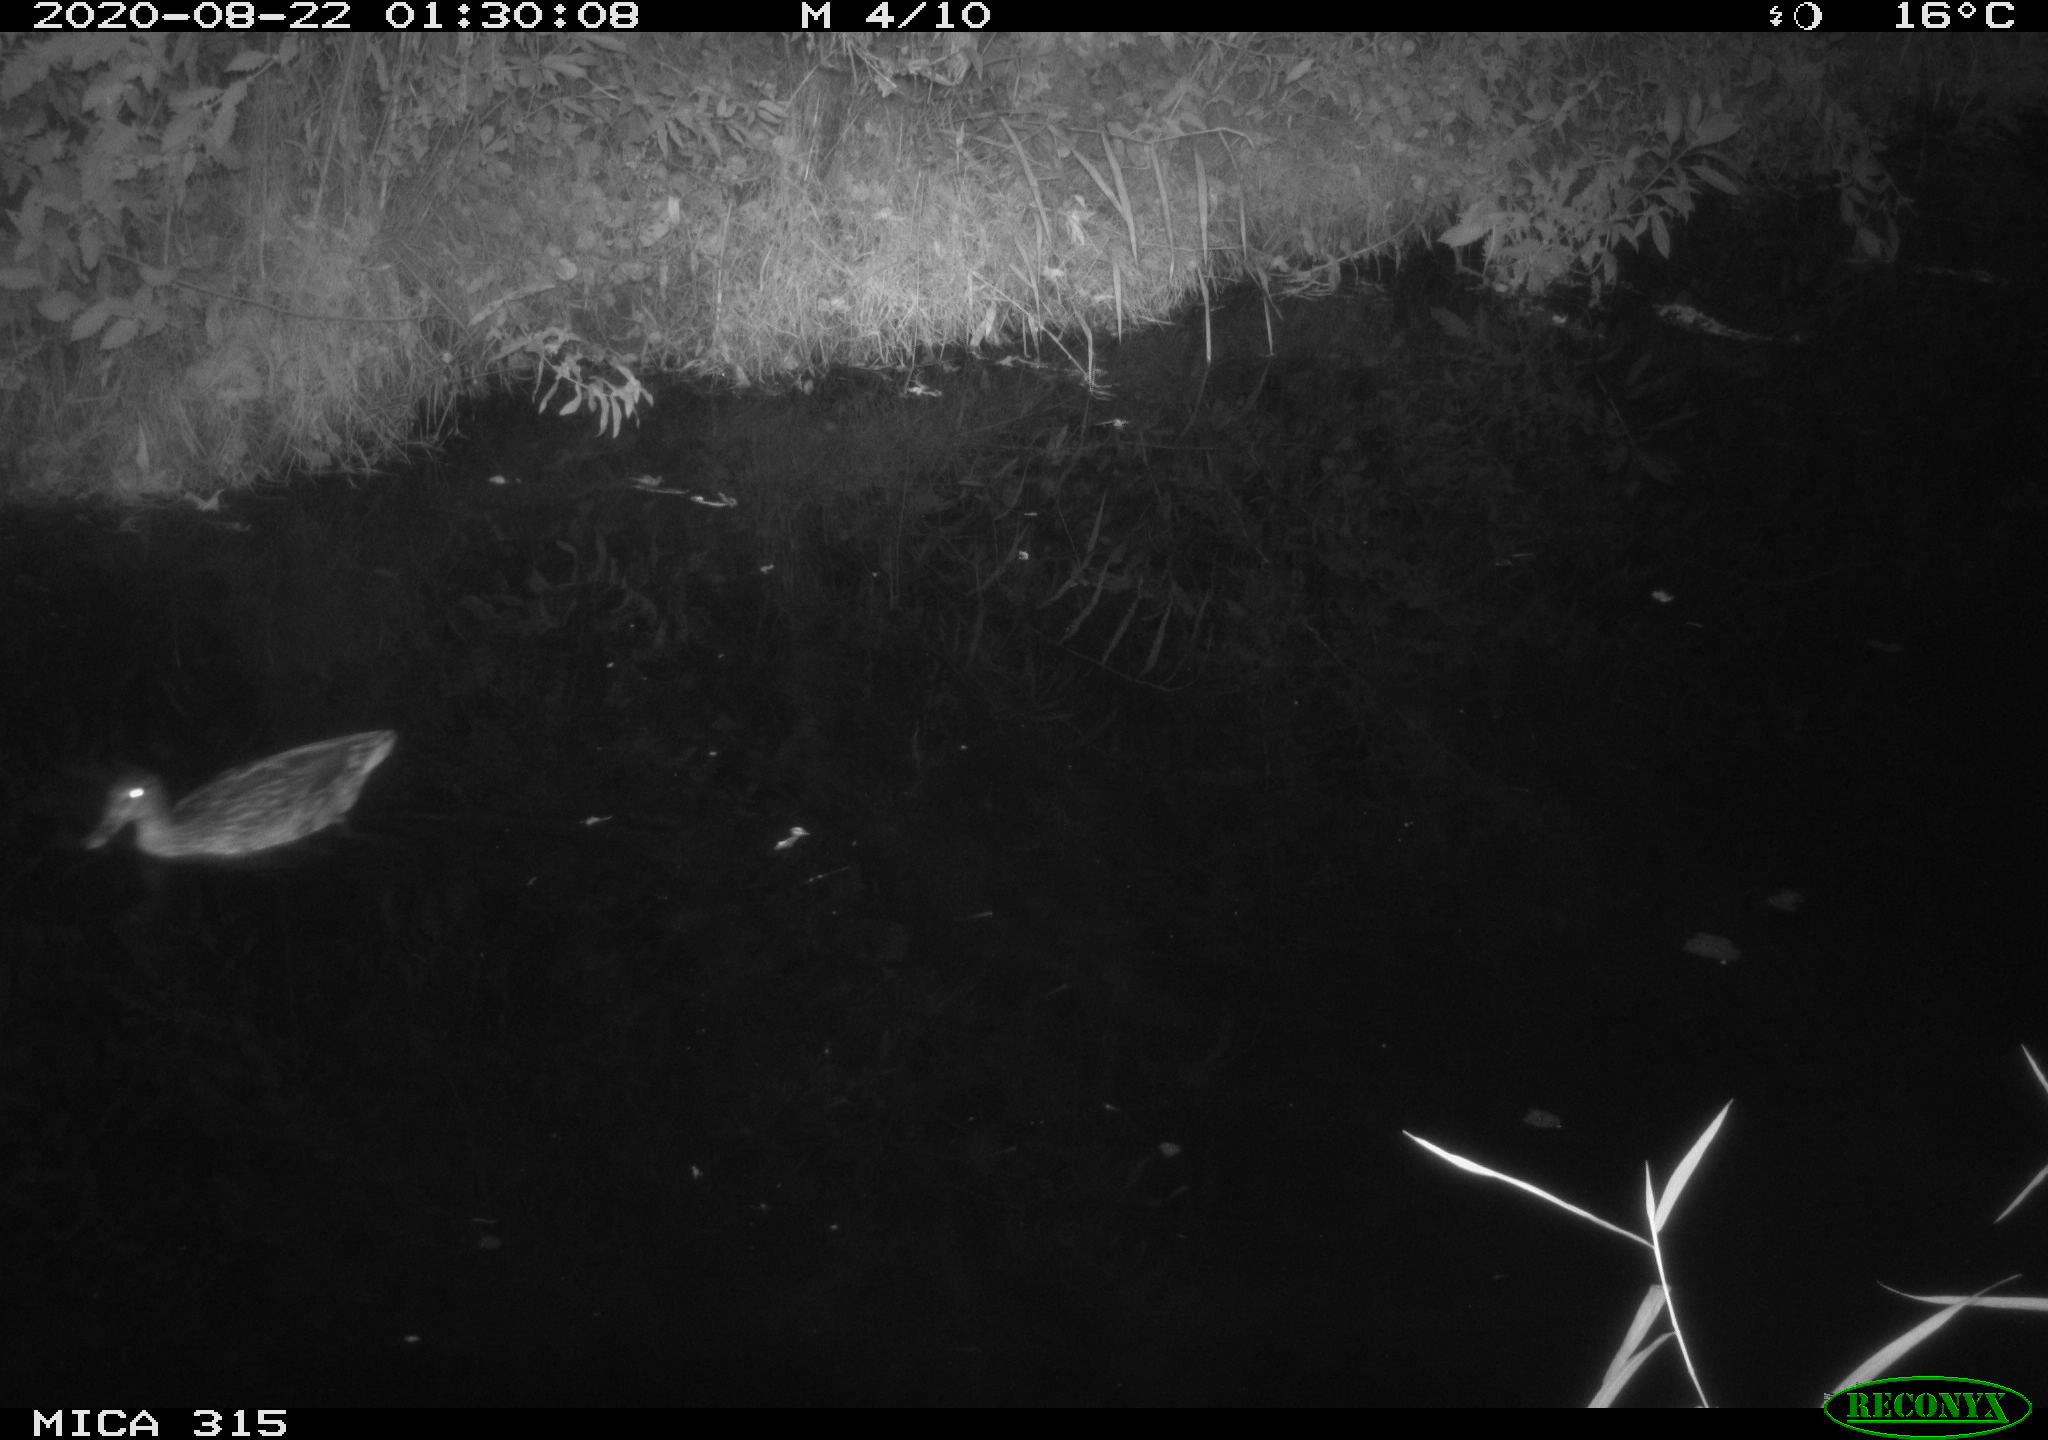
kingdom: Animalia
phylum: Chordata
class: Aves
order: Anseriformes
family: Anatidae
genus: Anas
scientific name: Anas platyrhynchos
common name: Mallard
